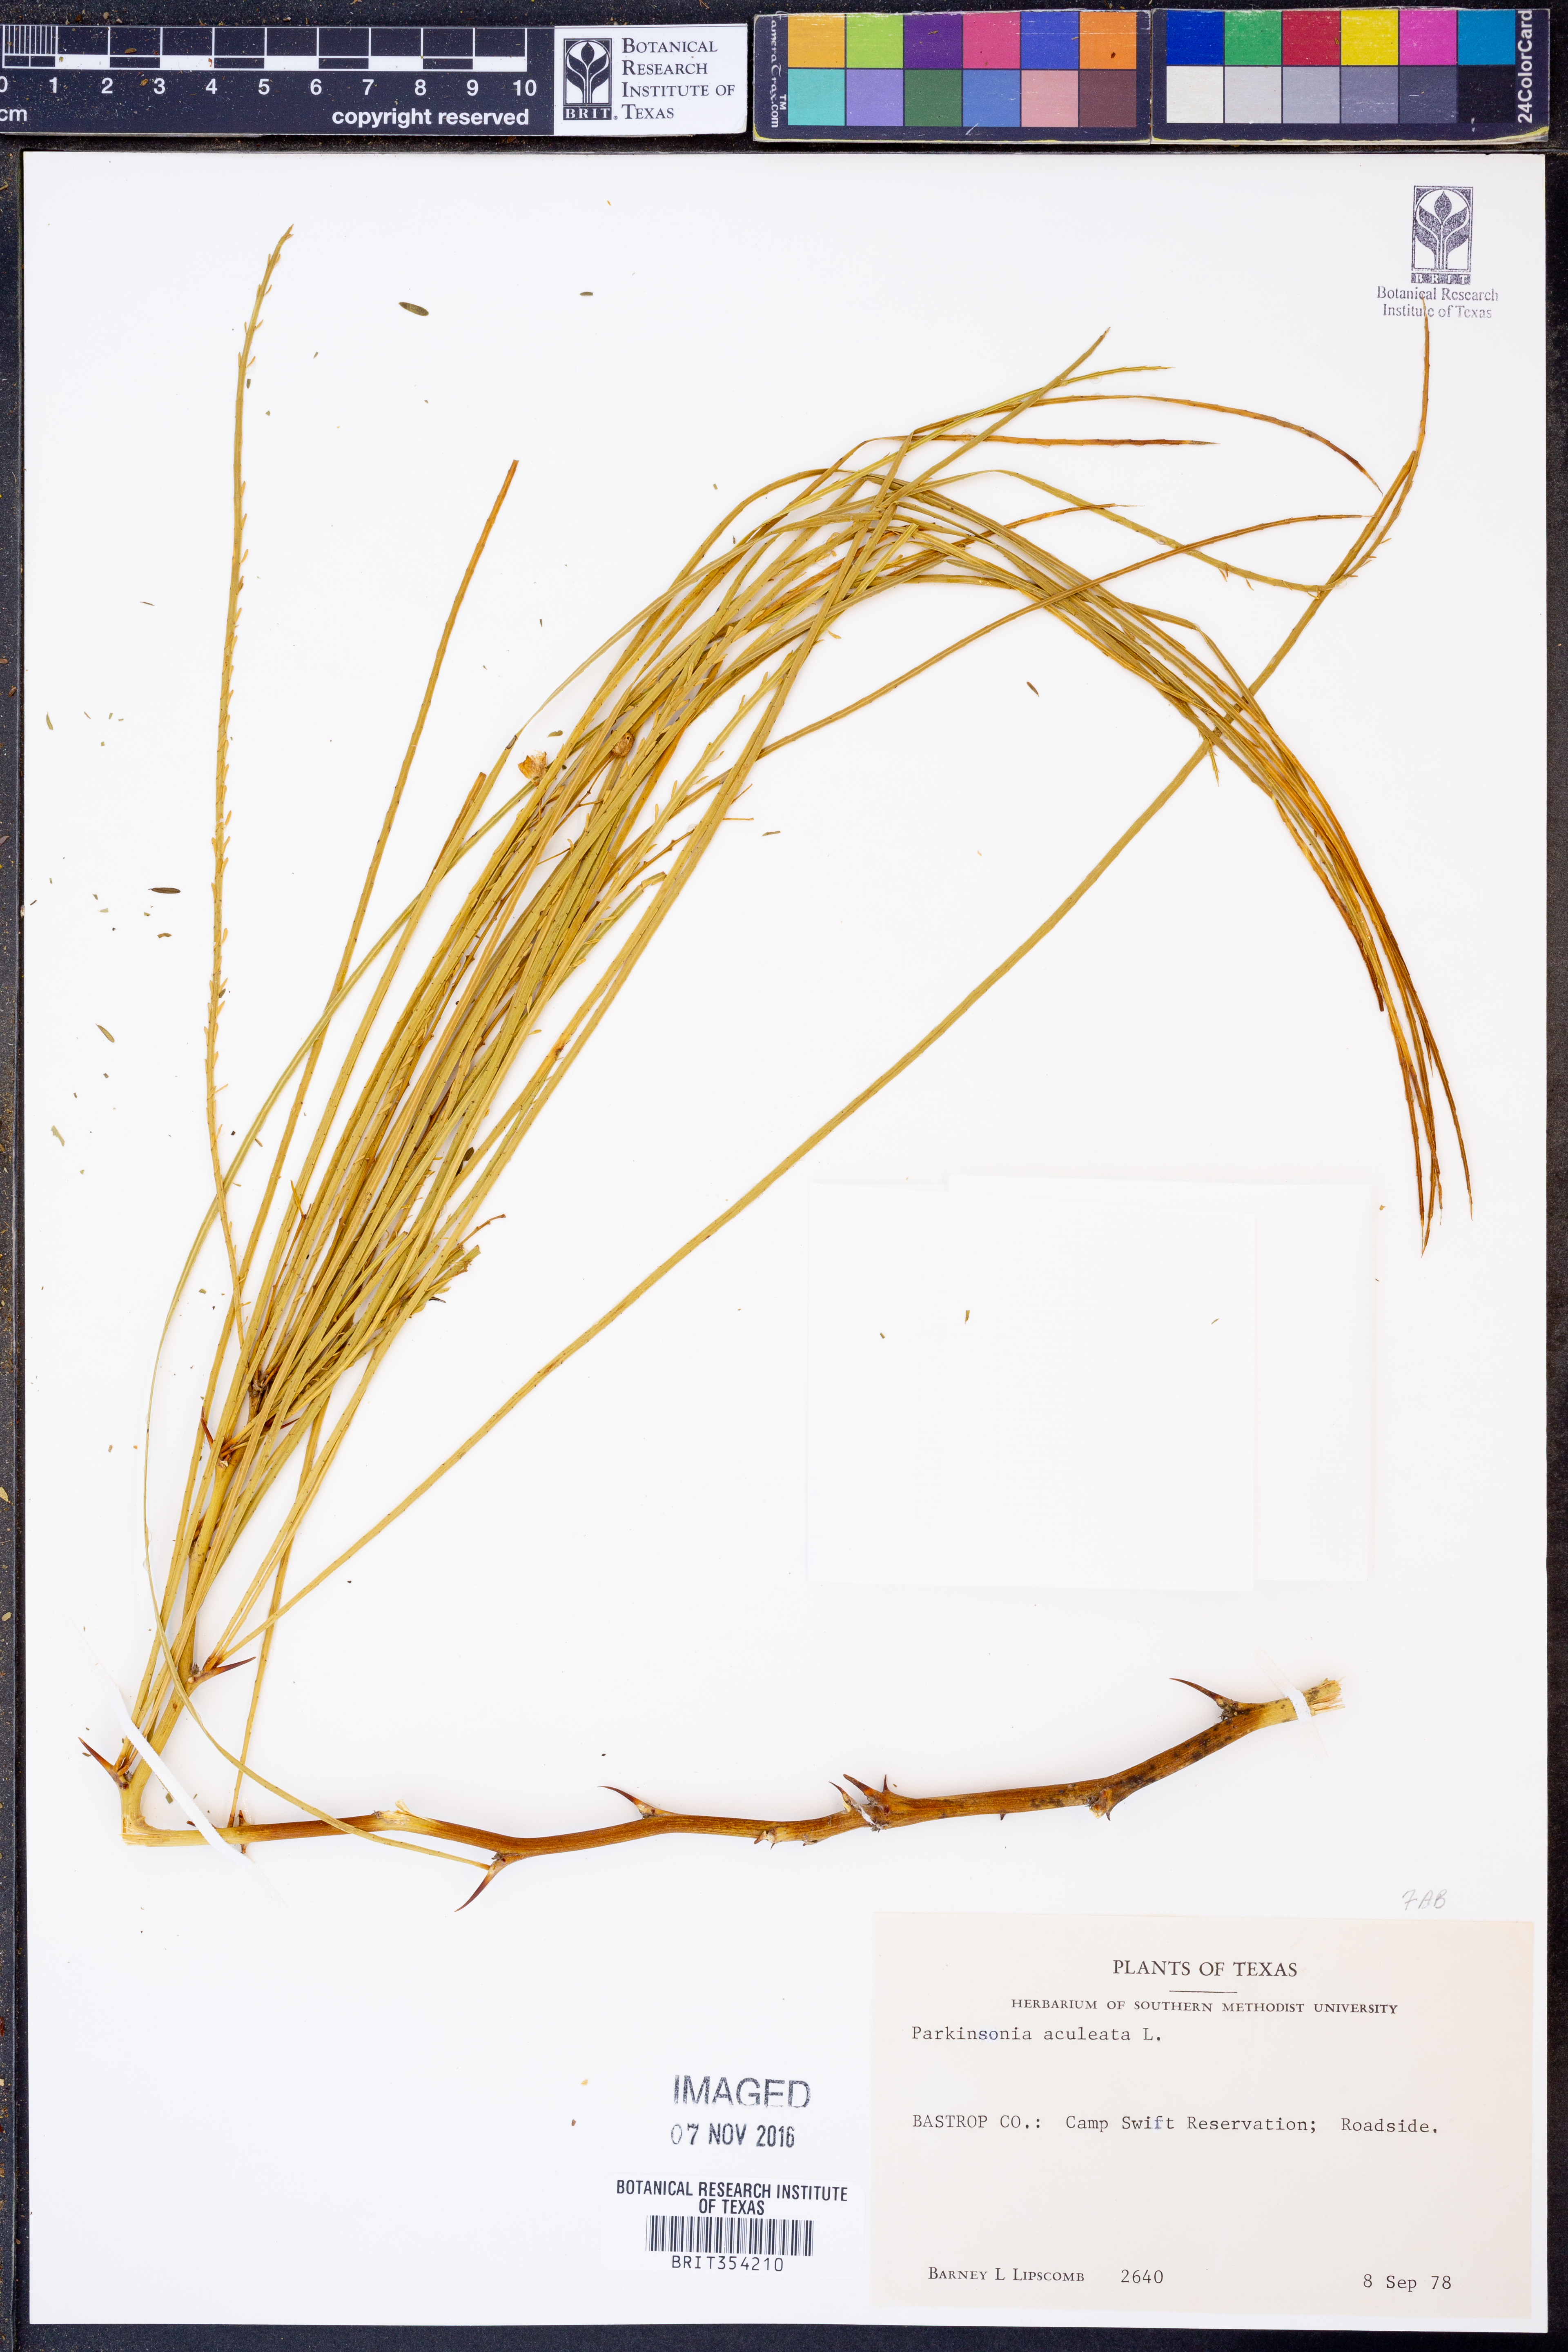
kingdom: Plantae
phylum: Tracheophyta
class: Magnoliopsida
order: Fabales
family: Fabaceae
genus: Parkinsonia
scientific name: Parkinsonia aculeata
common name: Jerusalem thorn
